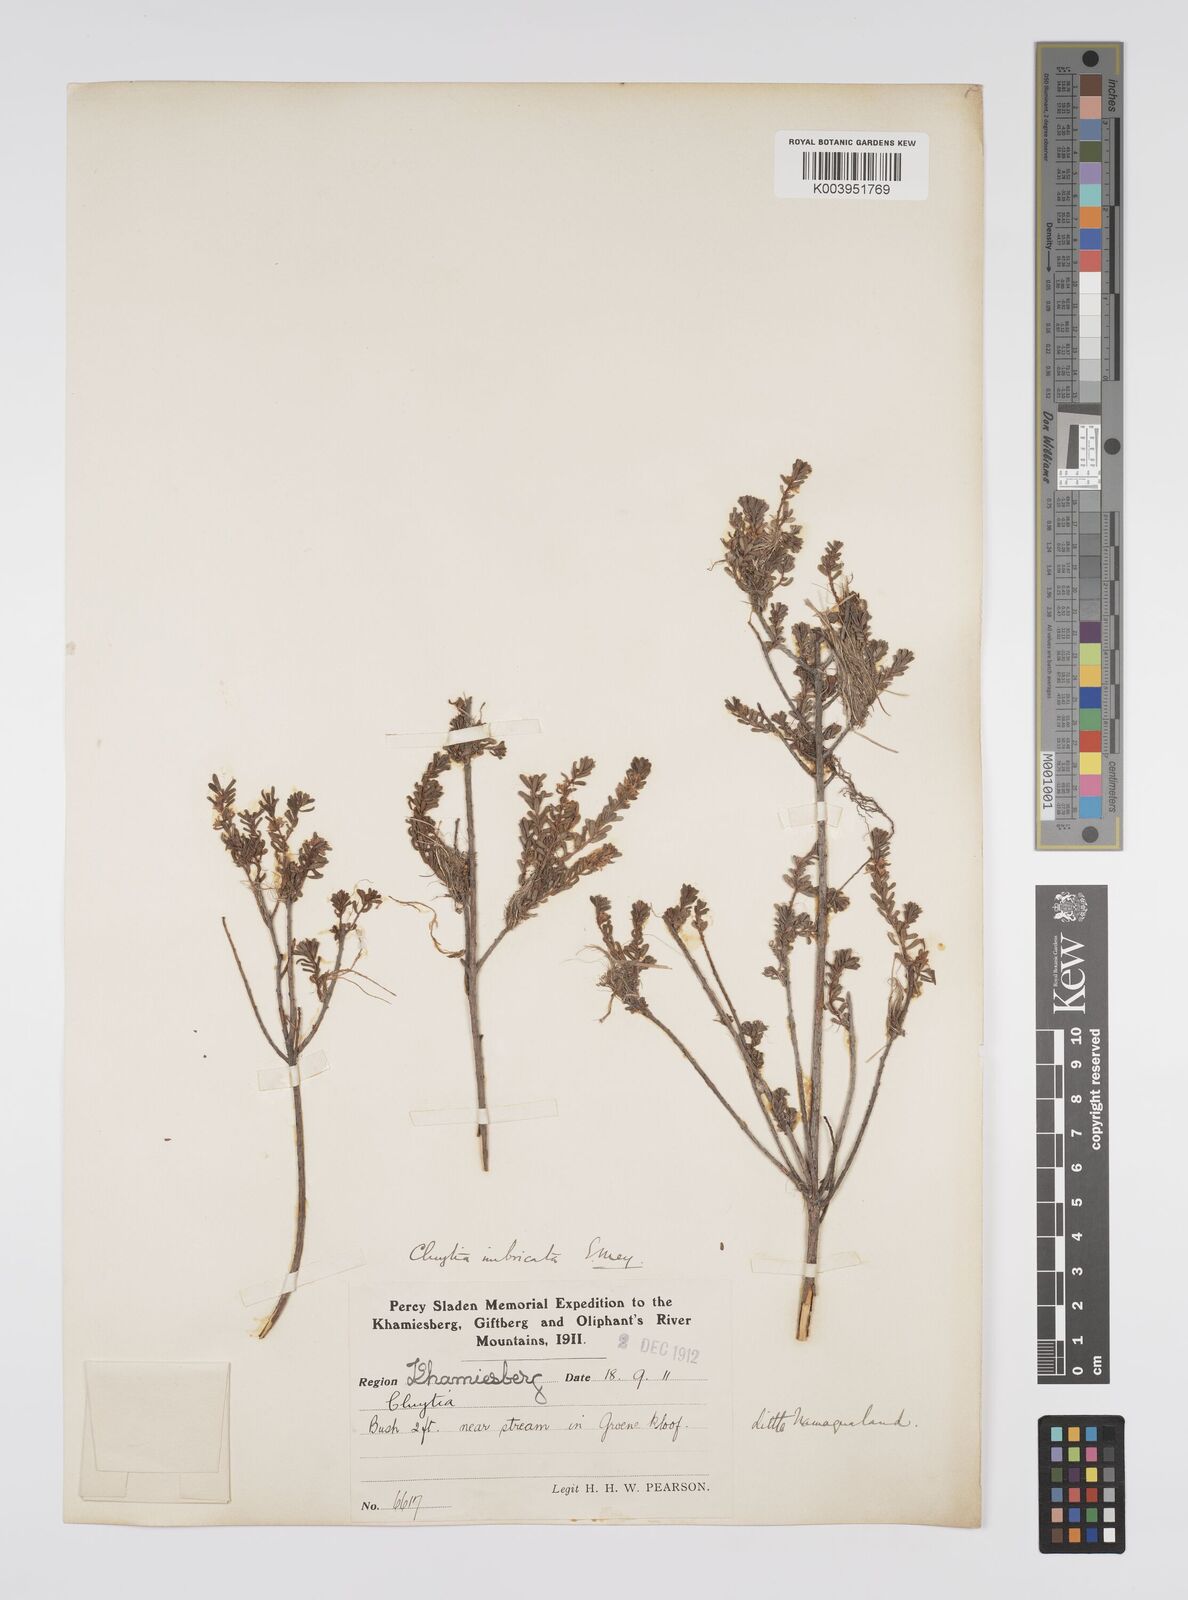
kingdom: Plantae
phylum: Tracheophyta
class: Magnoliopsida
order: Malpighiales
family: Peraceae
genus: Clutia
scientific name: Clutia imbricata
